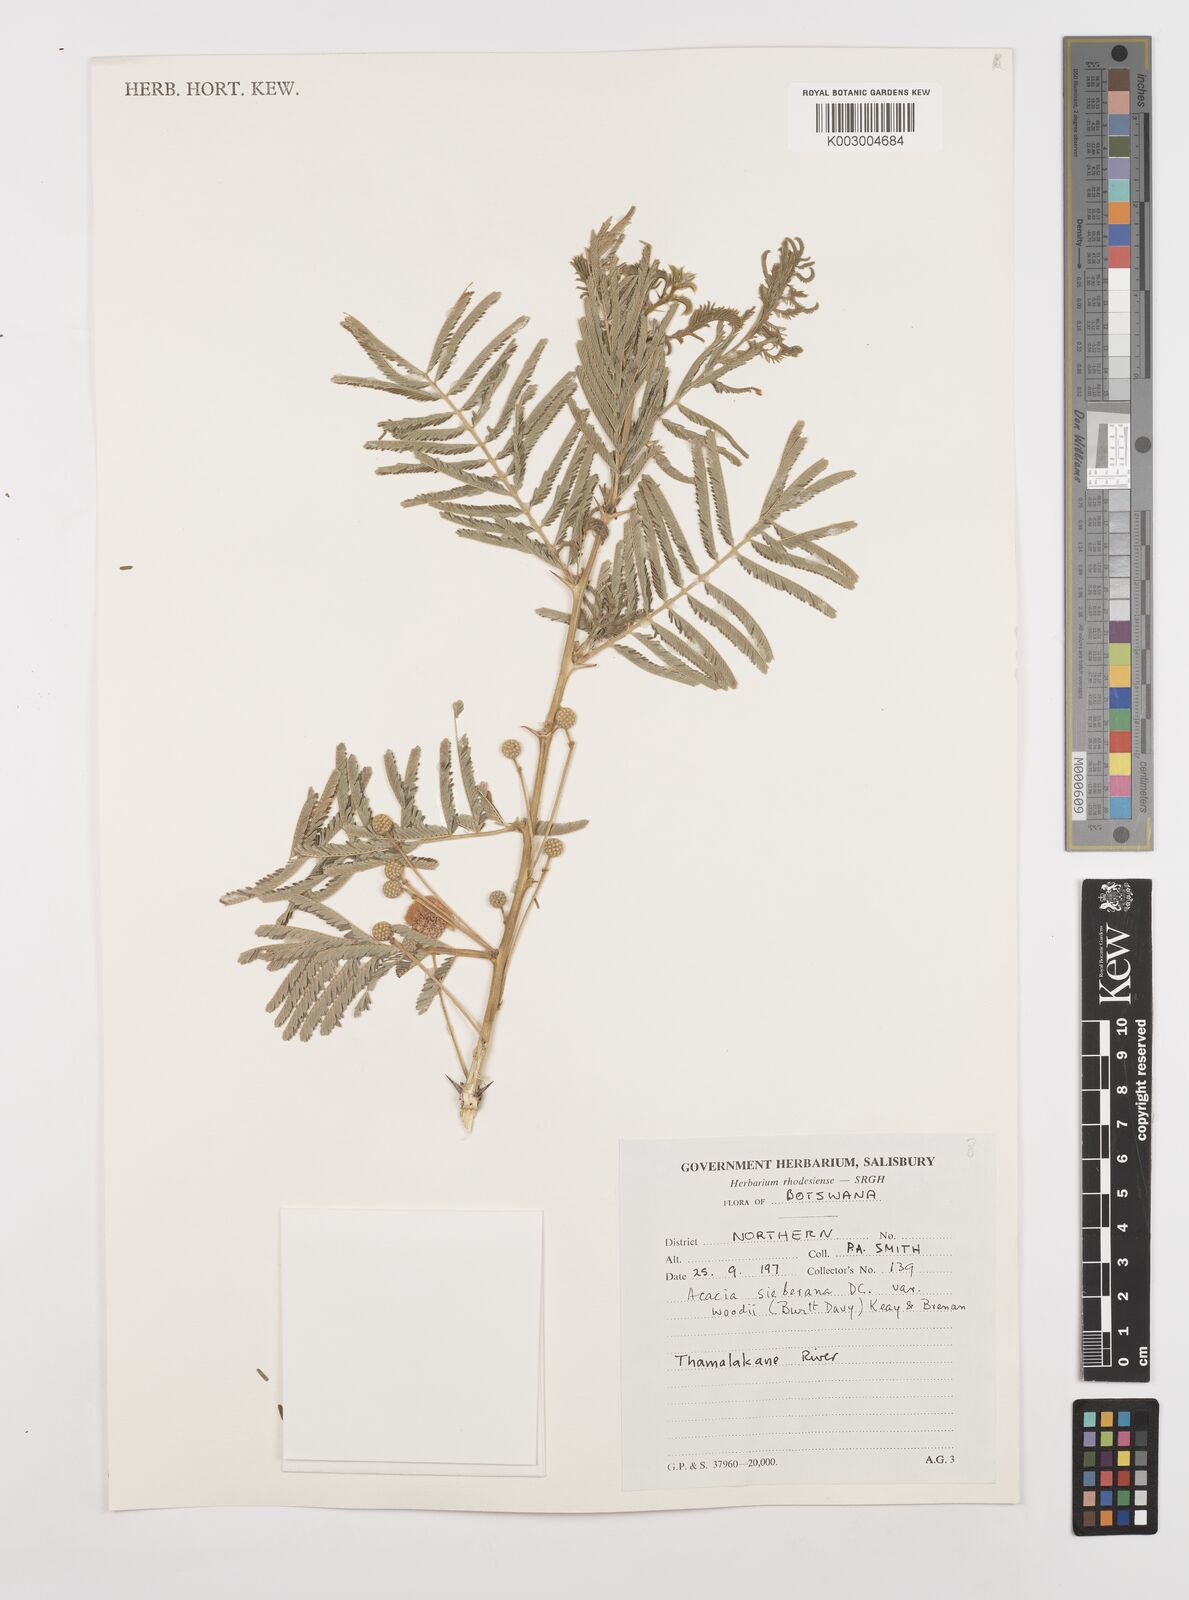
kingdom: Plantae
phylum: Tracheophyta
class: Magnoliopsida
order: Fabales
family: Fabaceae
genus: Vachellia
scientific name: Vachellia sieberiana
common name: Flat-topped thorn
